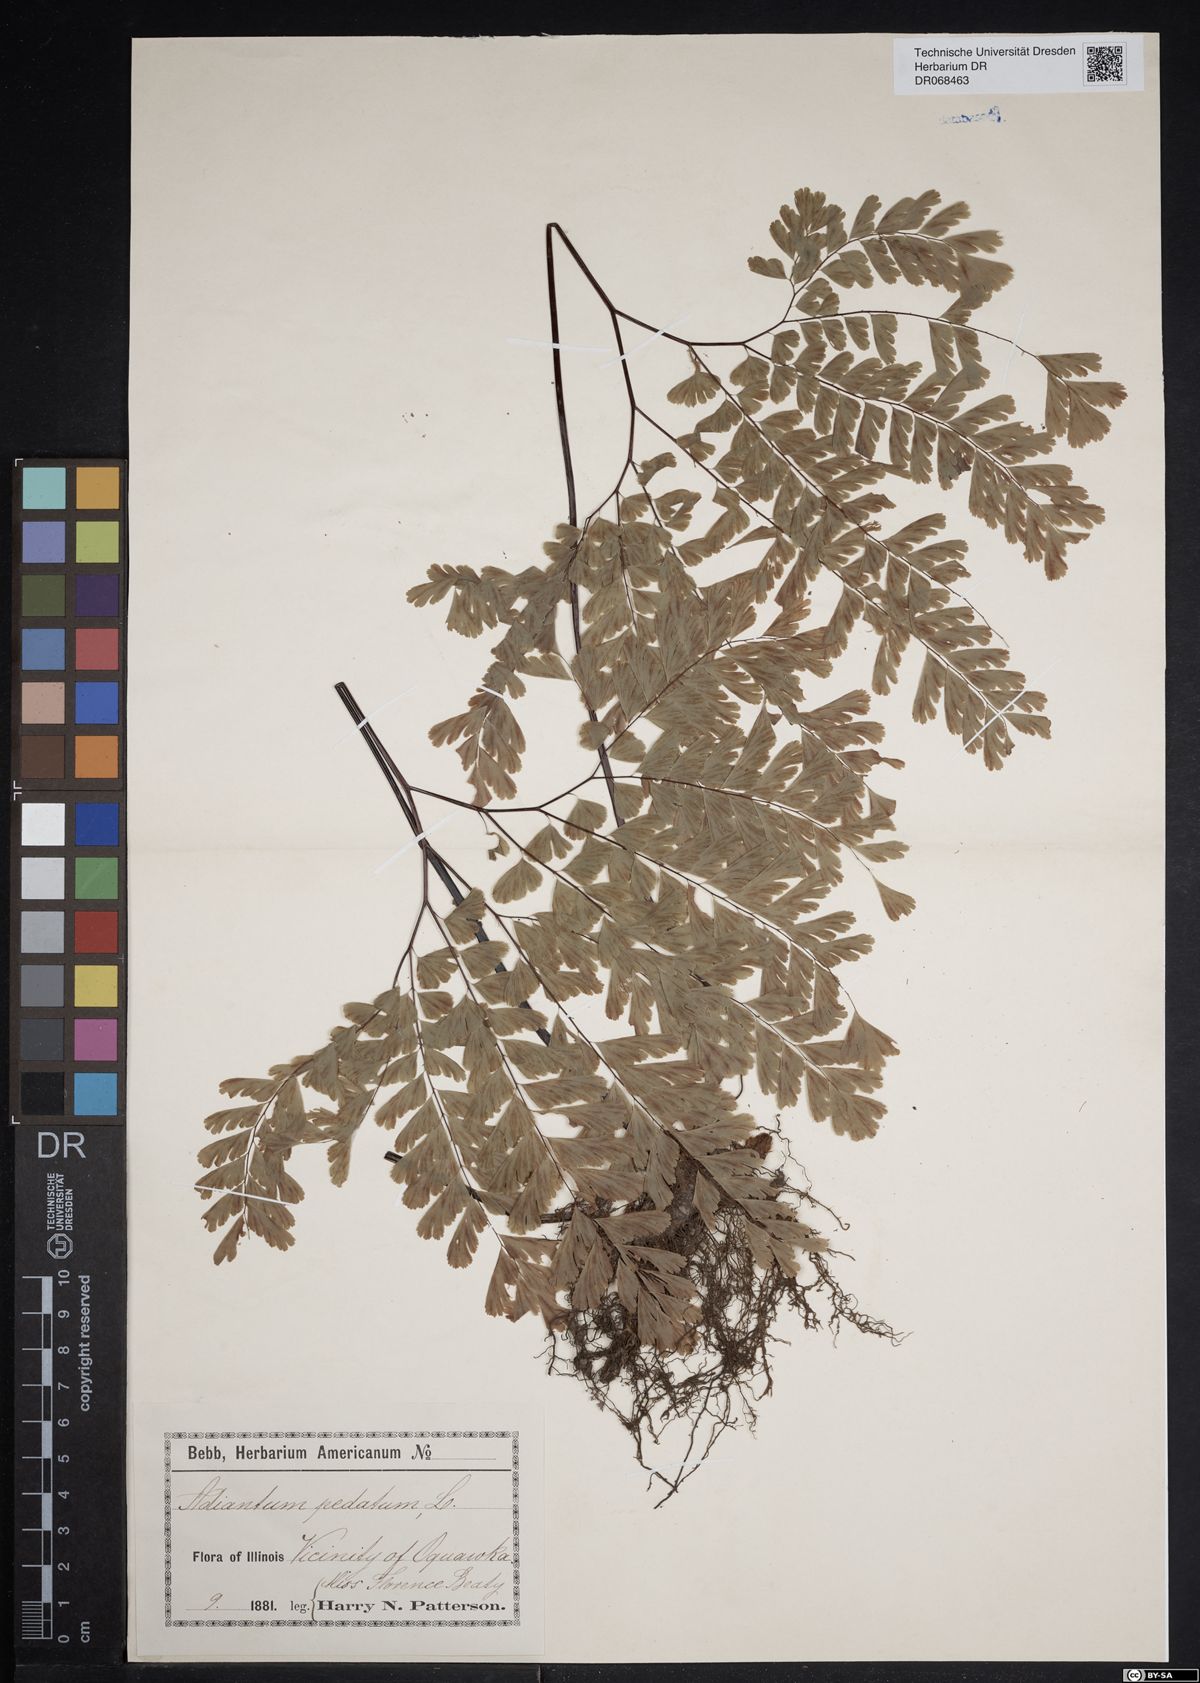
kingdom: Plantae
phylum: Tracheophyta
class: Polypodiopsida
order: Polypodiales
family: Pteridaceae
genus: Adiantum
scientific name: Adiantum pedatum
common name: Five-finger fern
